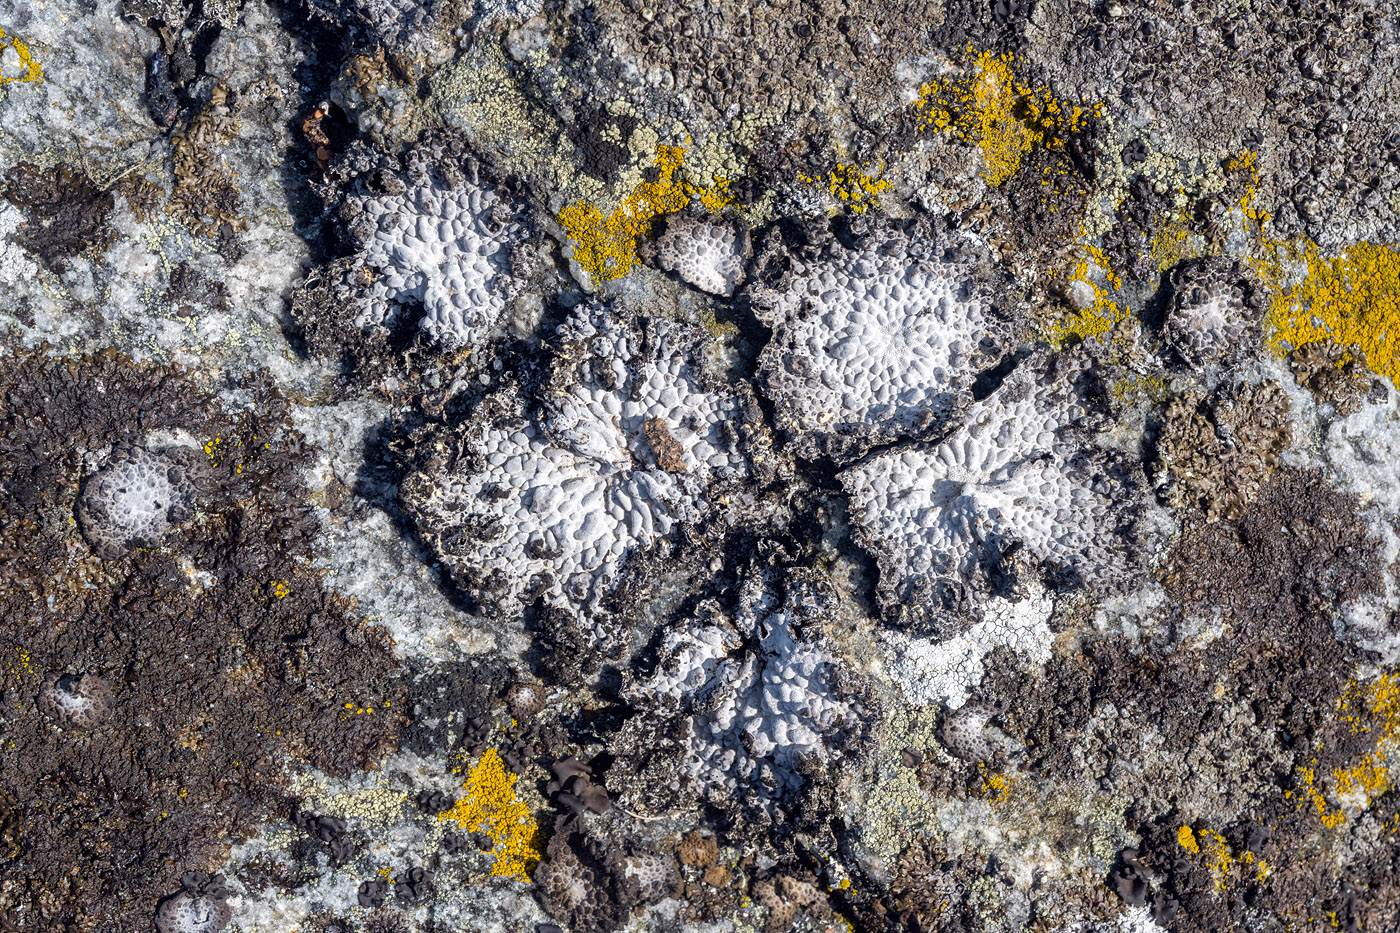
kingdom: Fungi
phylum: Ascomycota
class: Lecanoromycetes
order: Umbilicariales
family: Umbilicariaceae
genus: Lasallia
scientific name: Lasallia pustulata
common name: buklet navlelav
